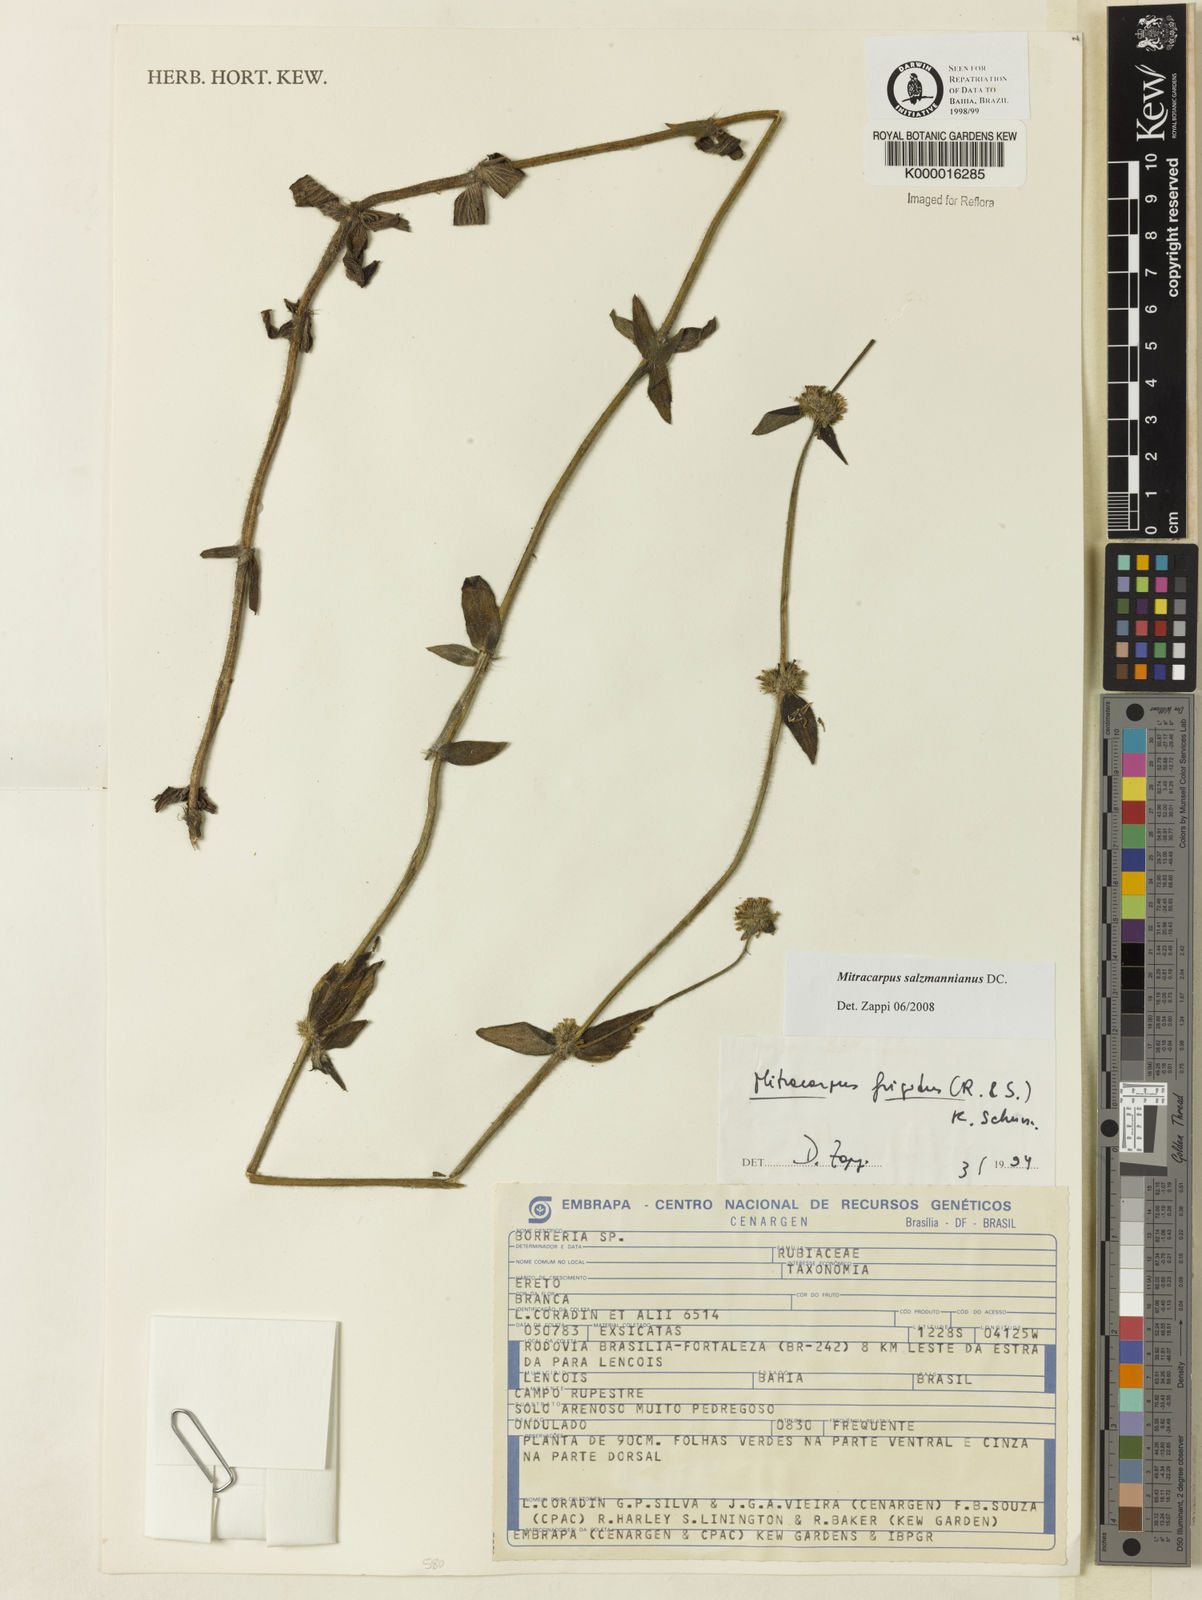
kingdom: Plantae
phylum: Tracheophyta
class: Magnoliopsida
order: Gentianales
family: Rubiaceae
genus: Mitracarpus
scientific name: Mitracarpus salzmannianus
